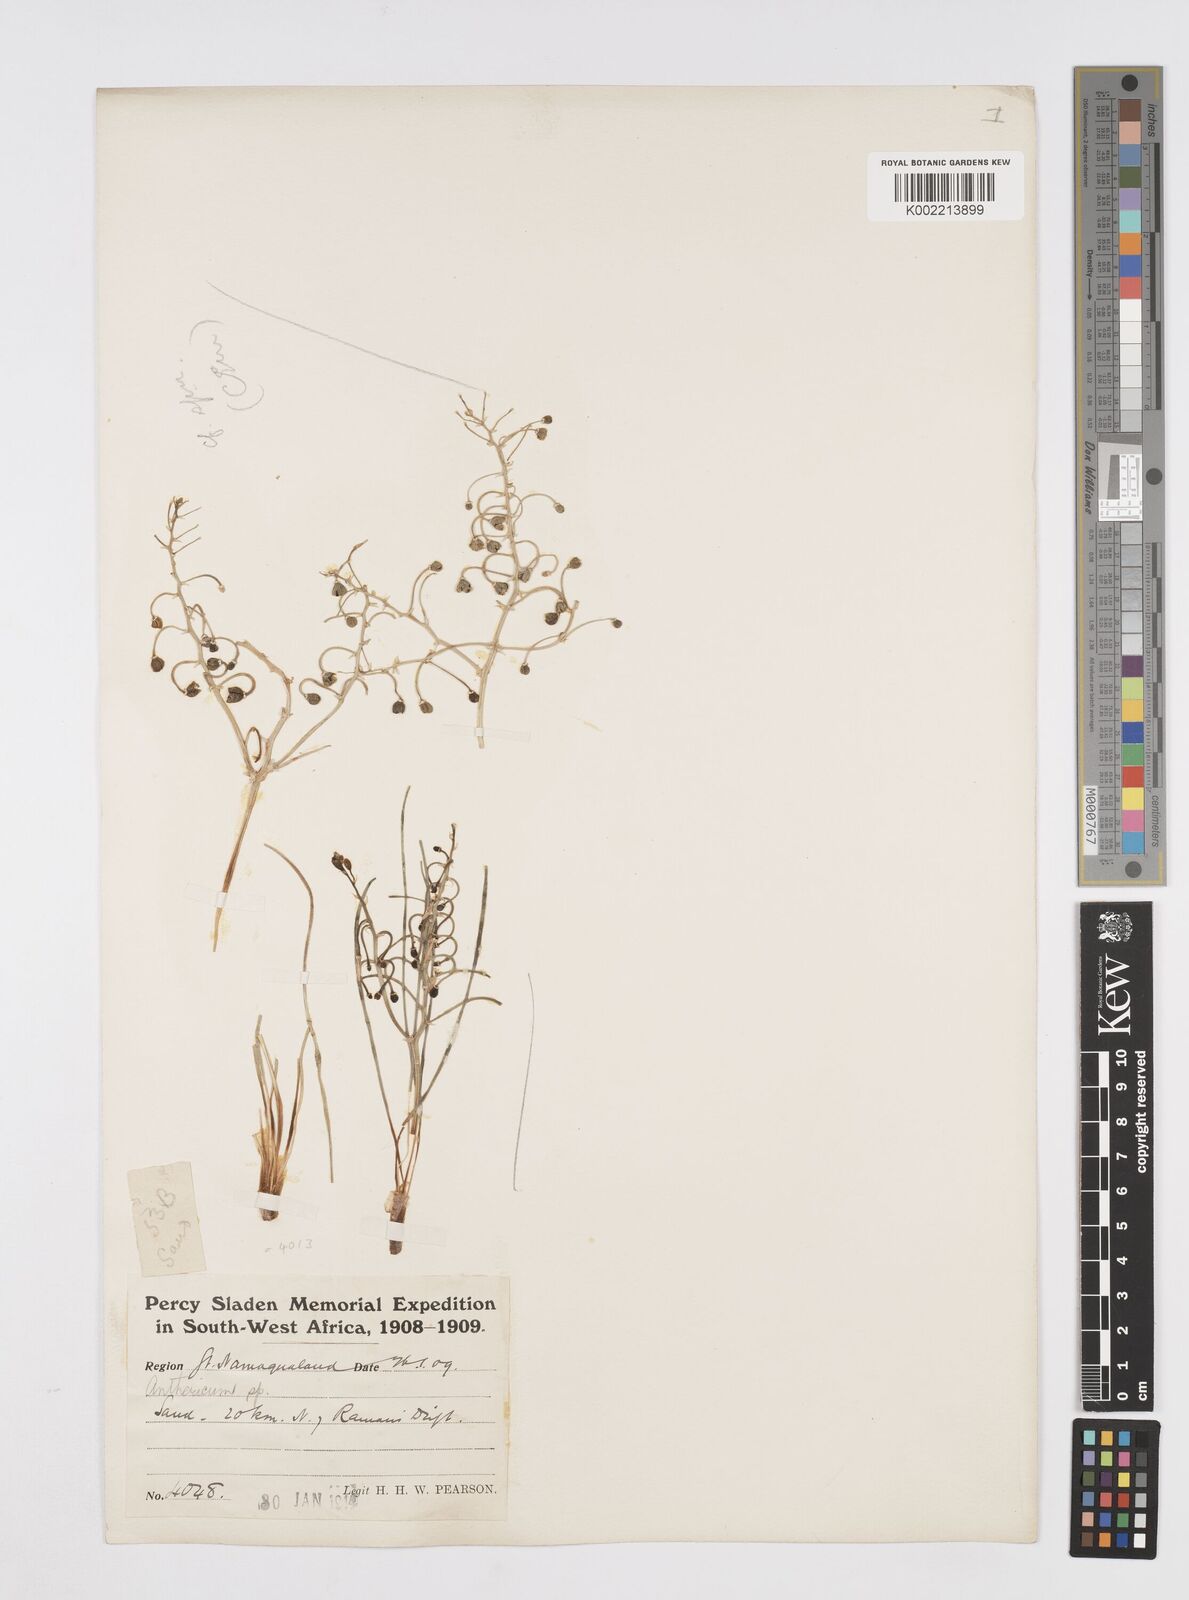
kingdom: Plantae
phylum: Tracheophyta
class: Liliopsida
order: Asparagales
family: Asphodelaceae
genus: Trachyandra
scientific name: Trachyandra flexifolia
